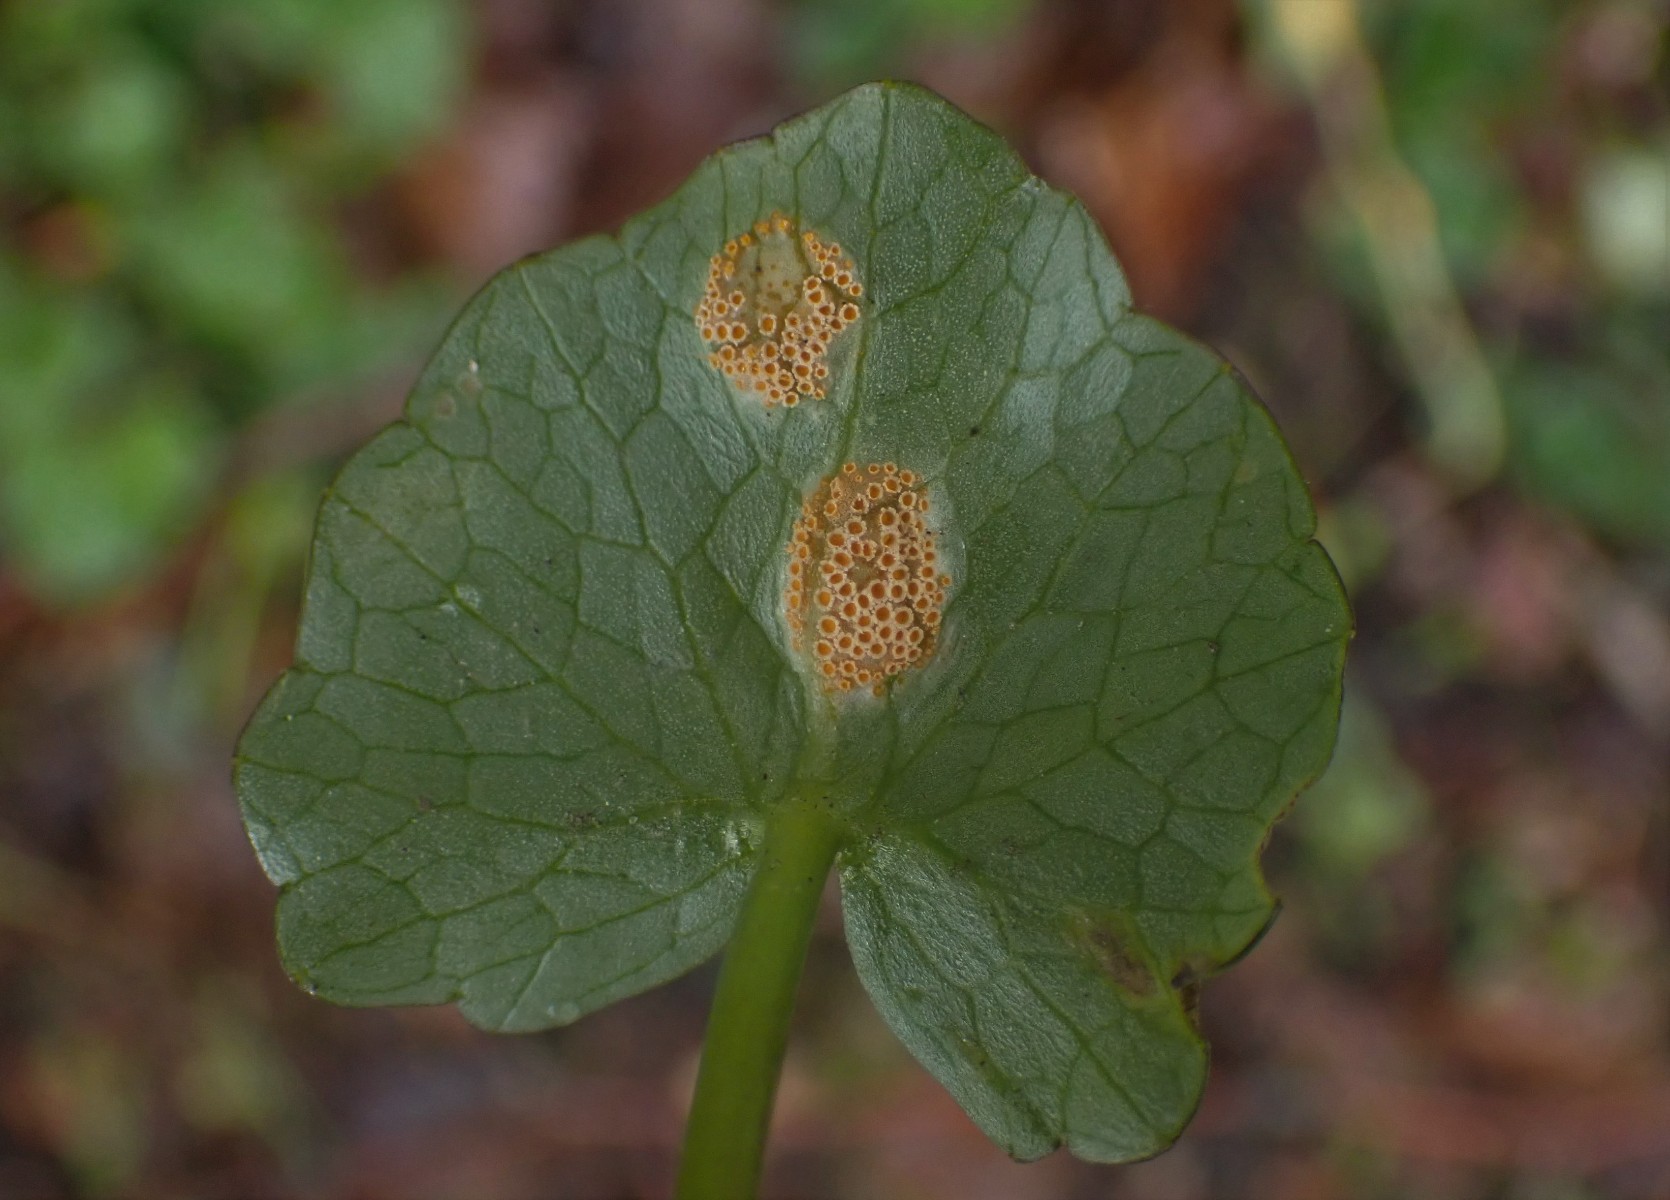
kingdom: Fungi
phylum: Basidiomycota
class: Pucciniomycetes
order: Pucciniales
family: Pucciniaceae
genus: Uromyces
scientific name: Uromyces dactylidis
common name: ranunkel-encellerust
